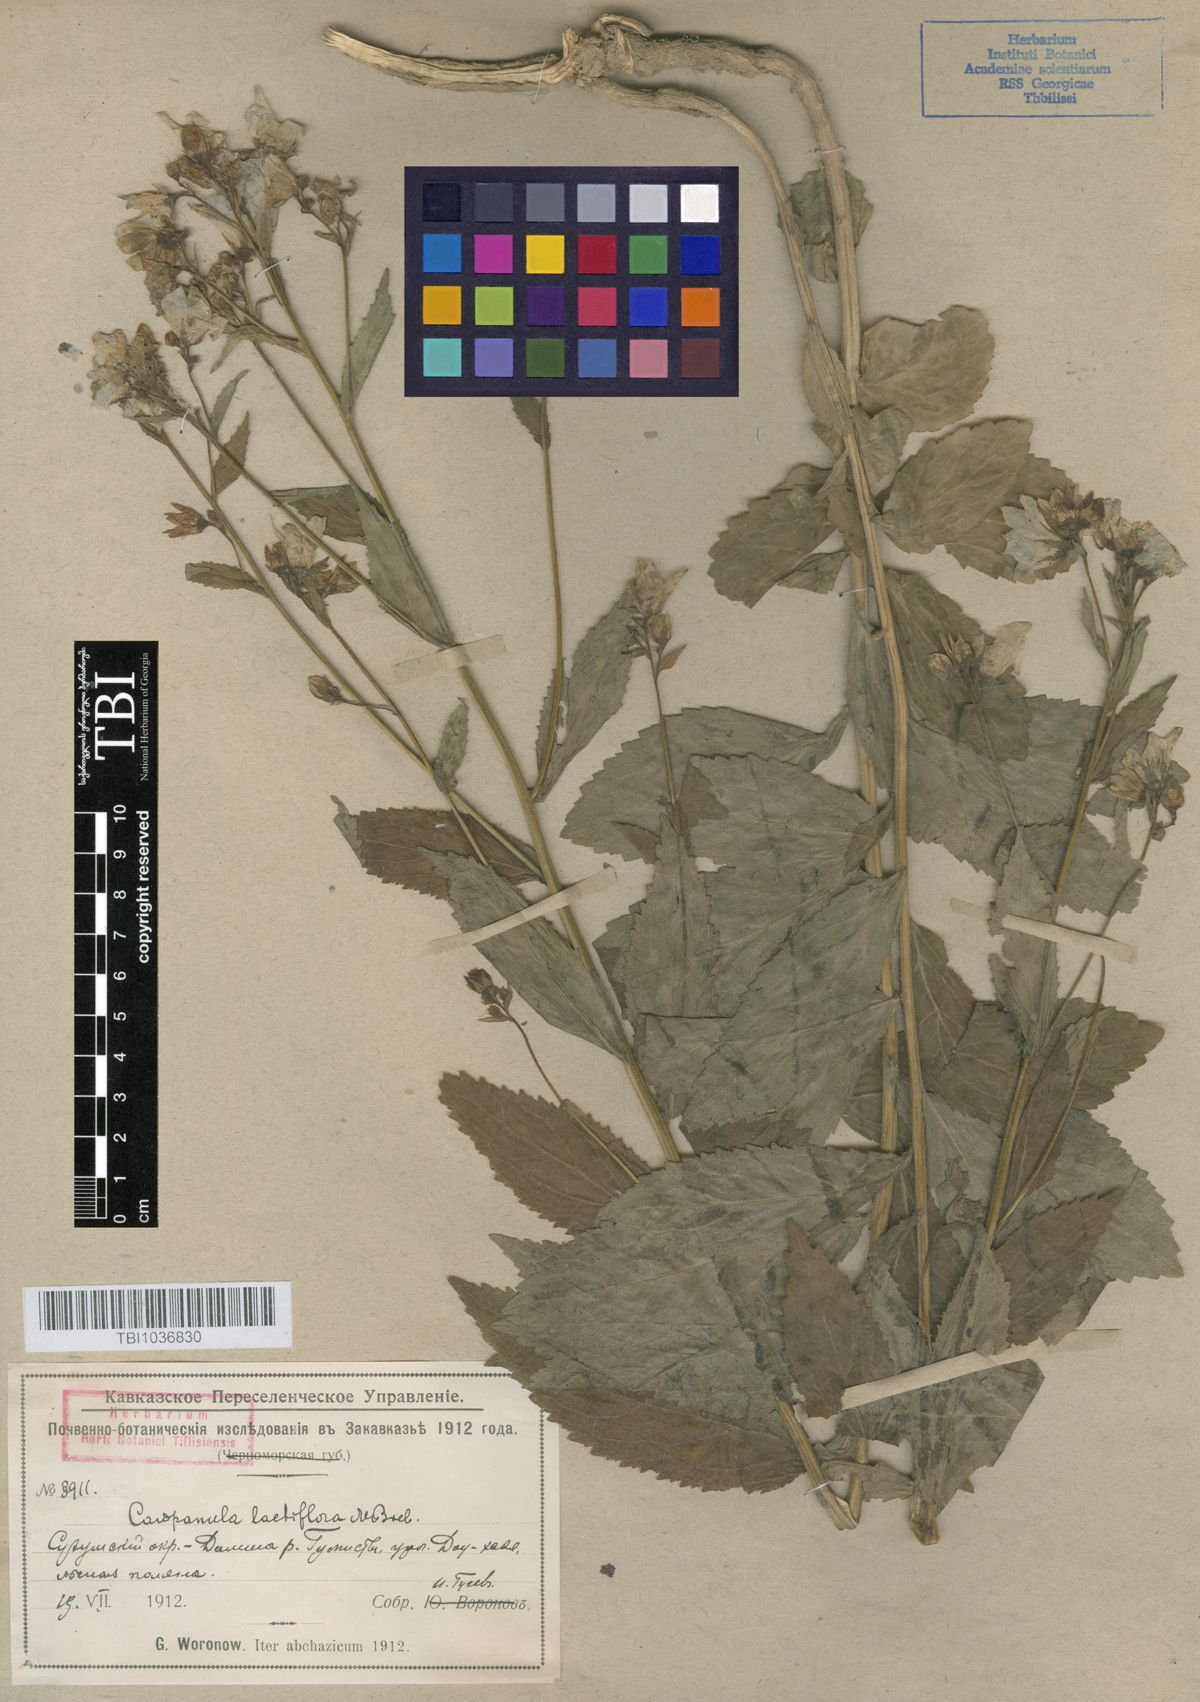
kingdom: Plantae
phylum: Tracheophyta
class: Magnoliopsida
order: Asterales
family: Campanulaceae
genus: Campanula
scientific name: Campanula lactiflora
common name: Milky bellflower
